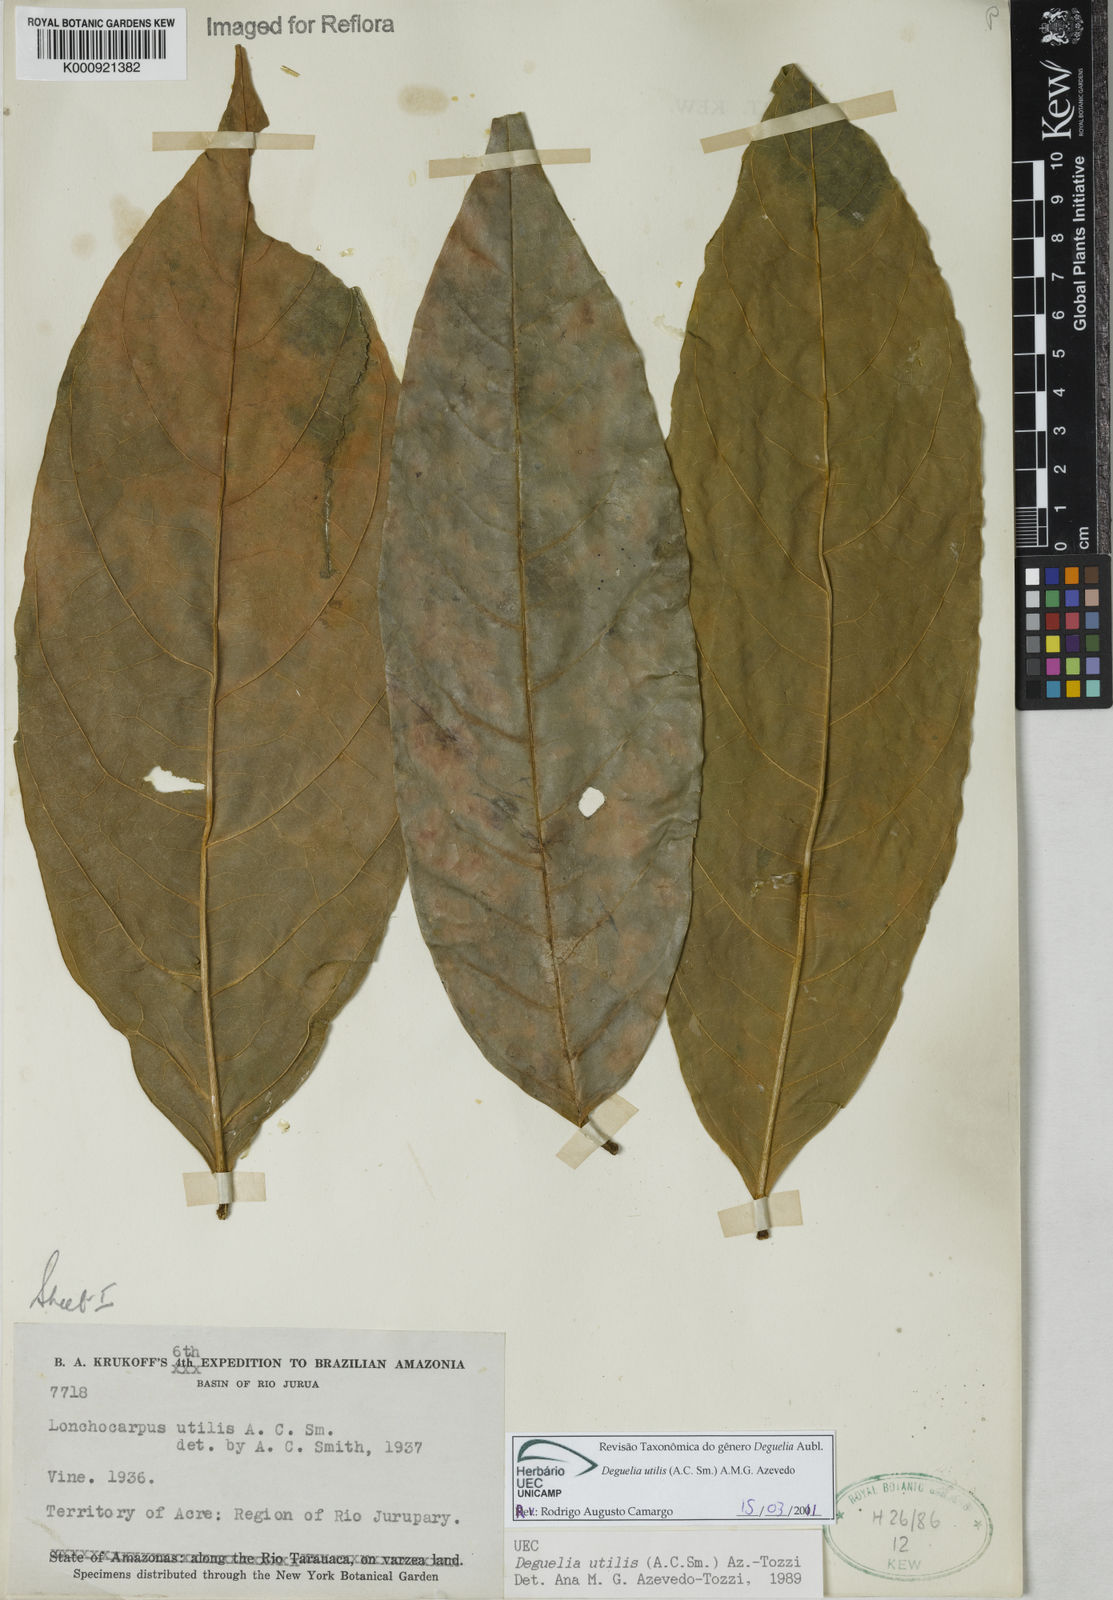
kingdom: Plantae
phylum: Tracheophyta
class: Magnoliopsida
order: Fabales
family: Fabaceae
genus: Deguelia
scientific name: Deguelia utilis
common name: Timbo
